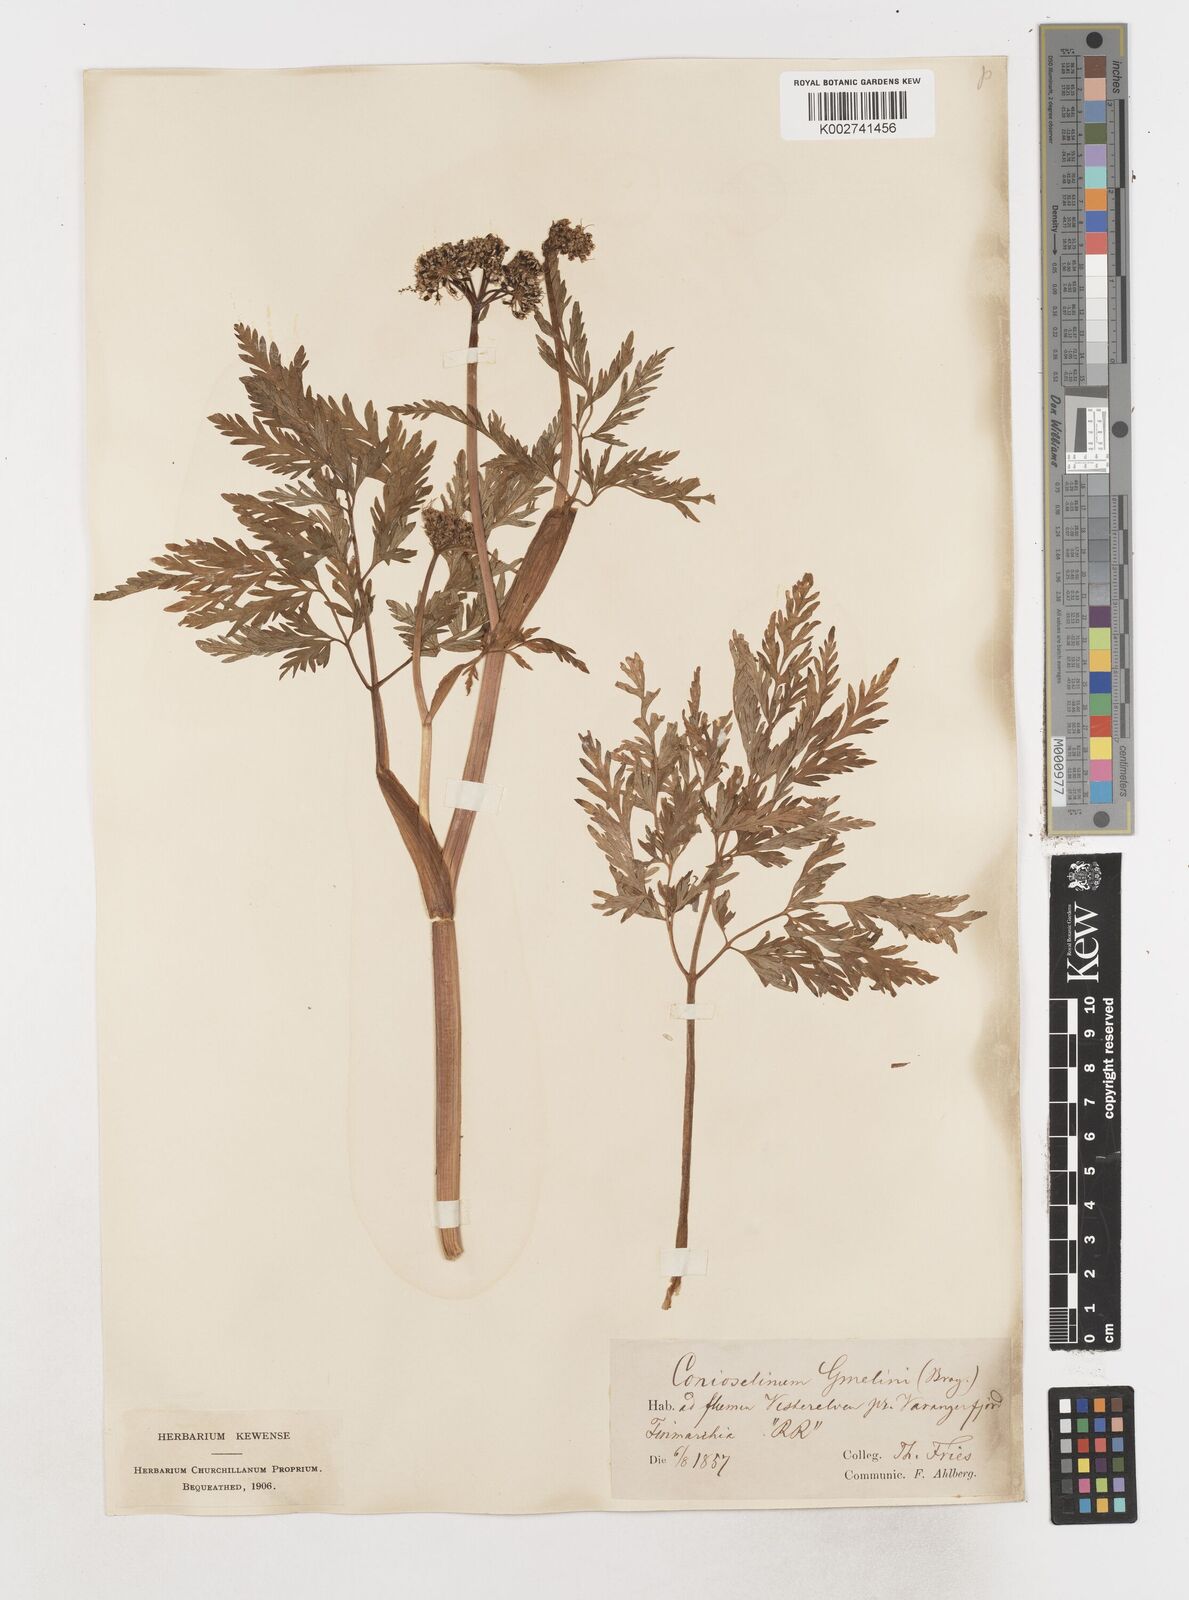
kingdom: Plantae
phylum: Tracheophyta
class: Magnoliopsida
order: Apiales
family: Apiaceae
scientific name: Apiaceae
